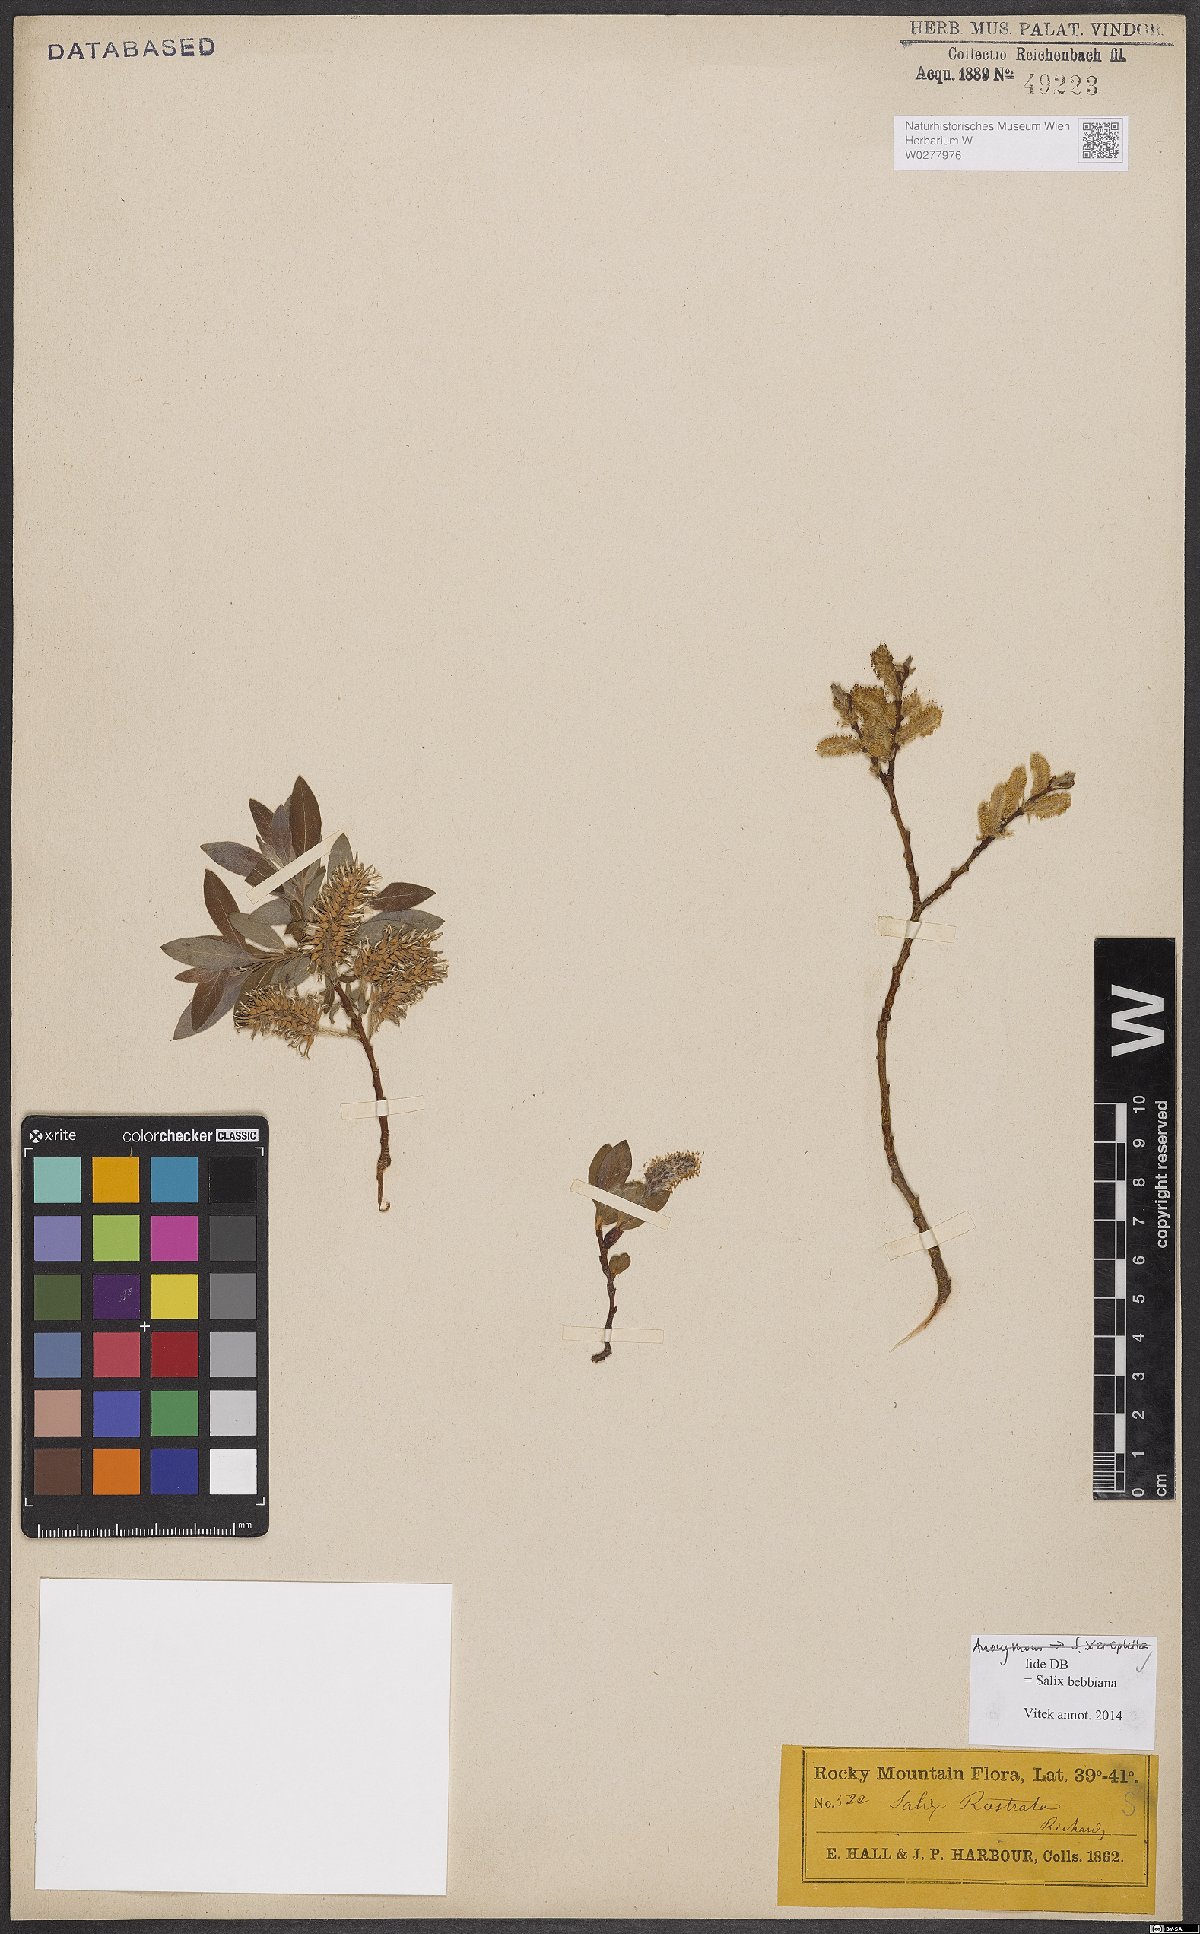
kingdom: Plantae
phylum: Tracheophyta
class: Magnoliopsida
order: Malpighiales
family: Salicaceae
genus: Salix
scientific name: Salix bebbiana
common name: Bebb's willow
